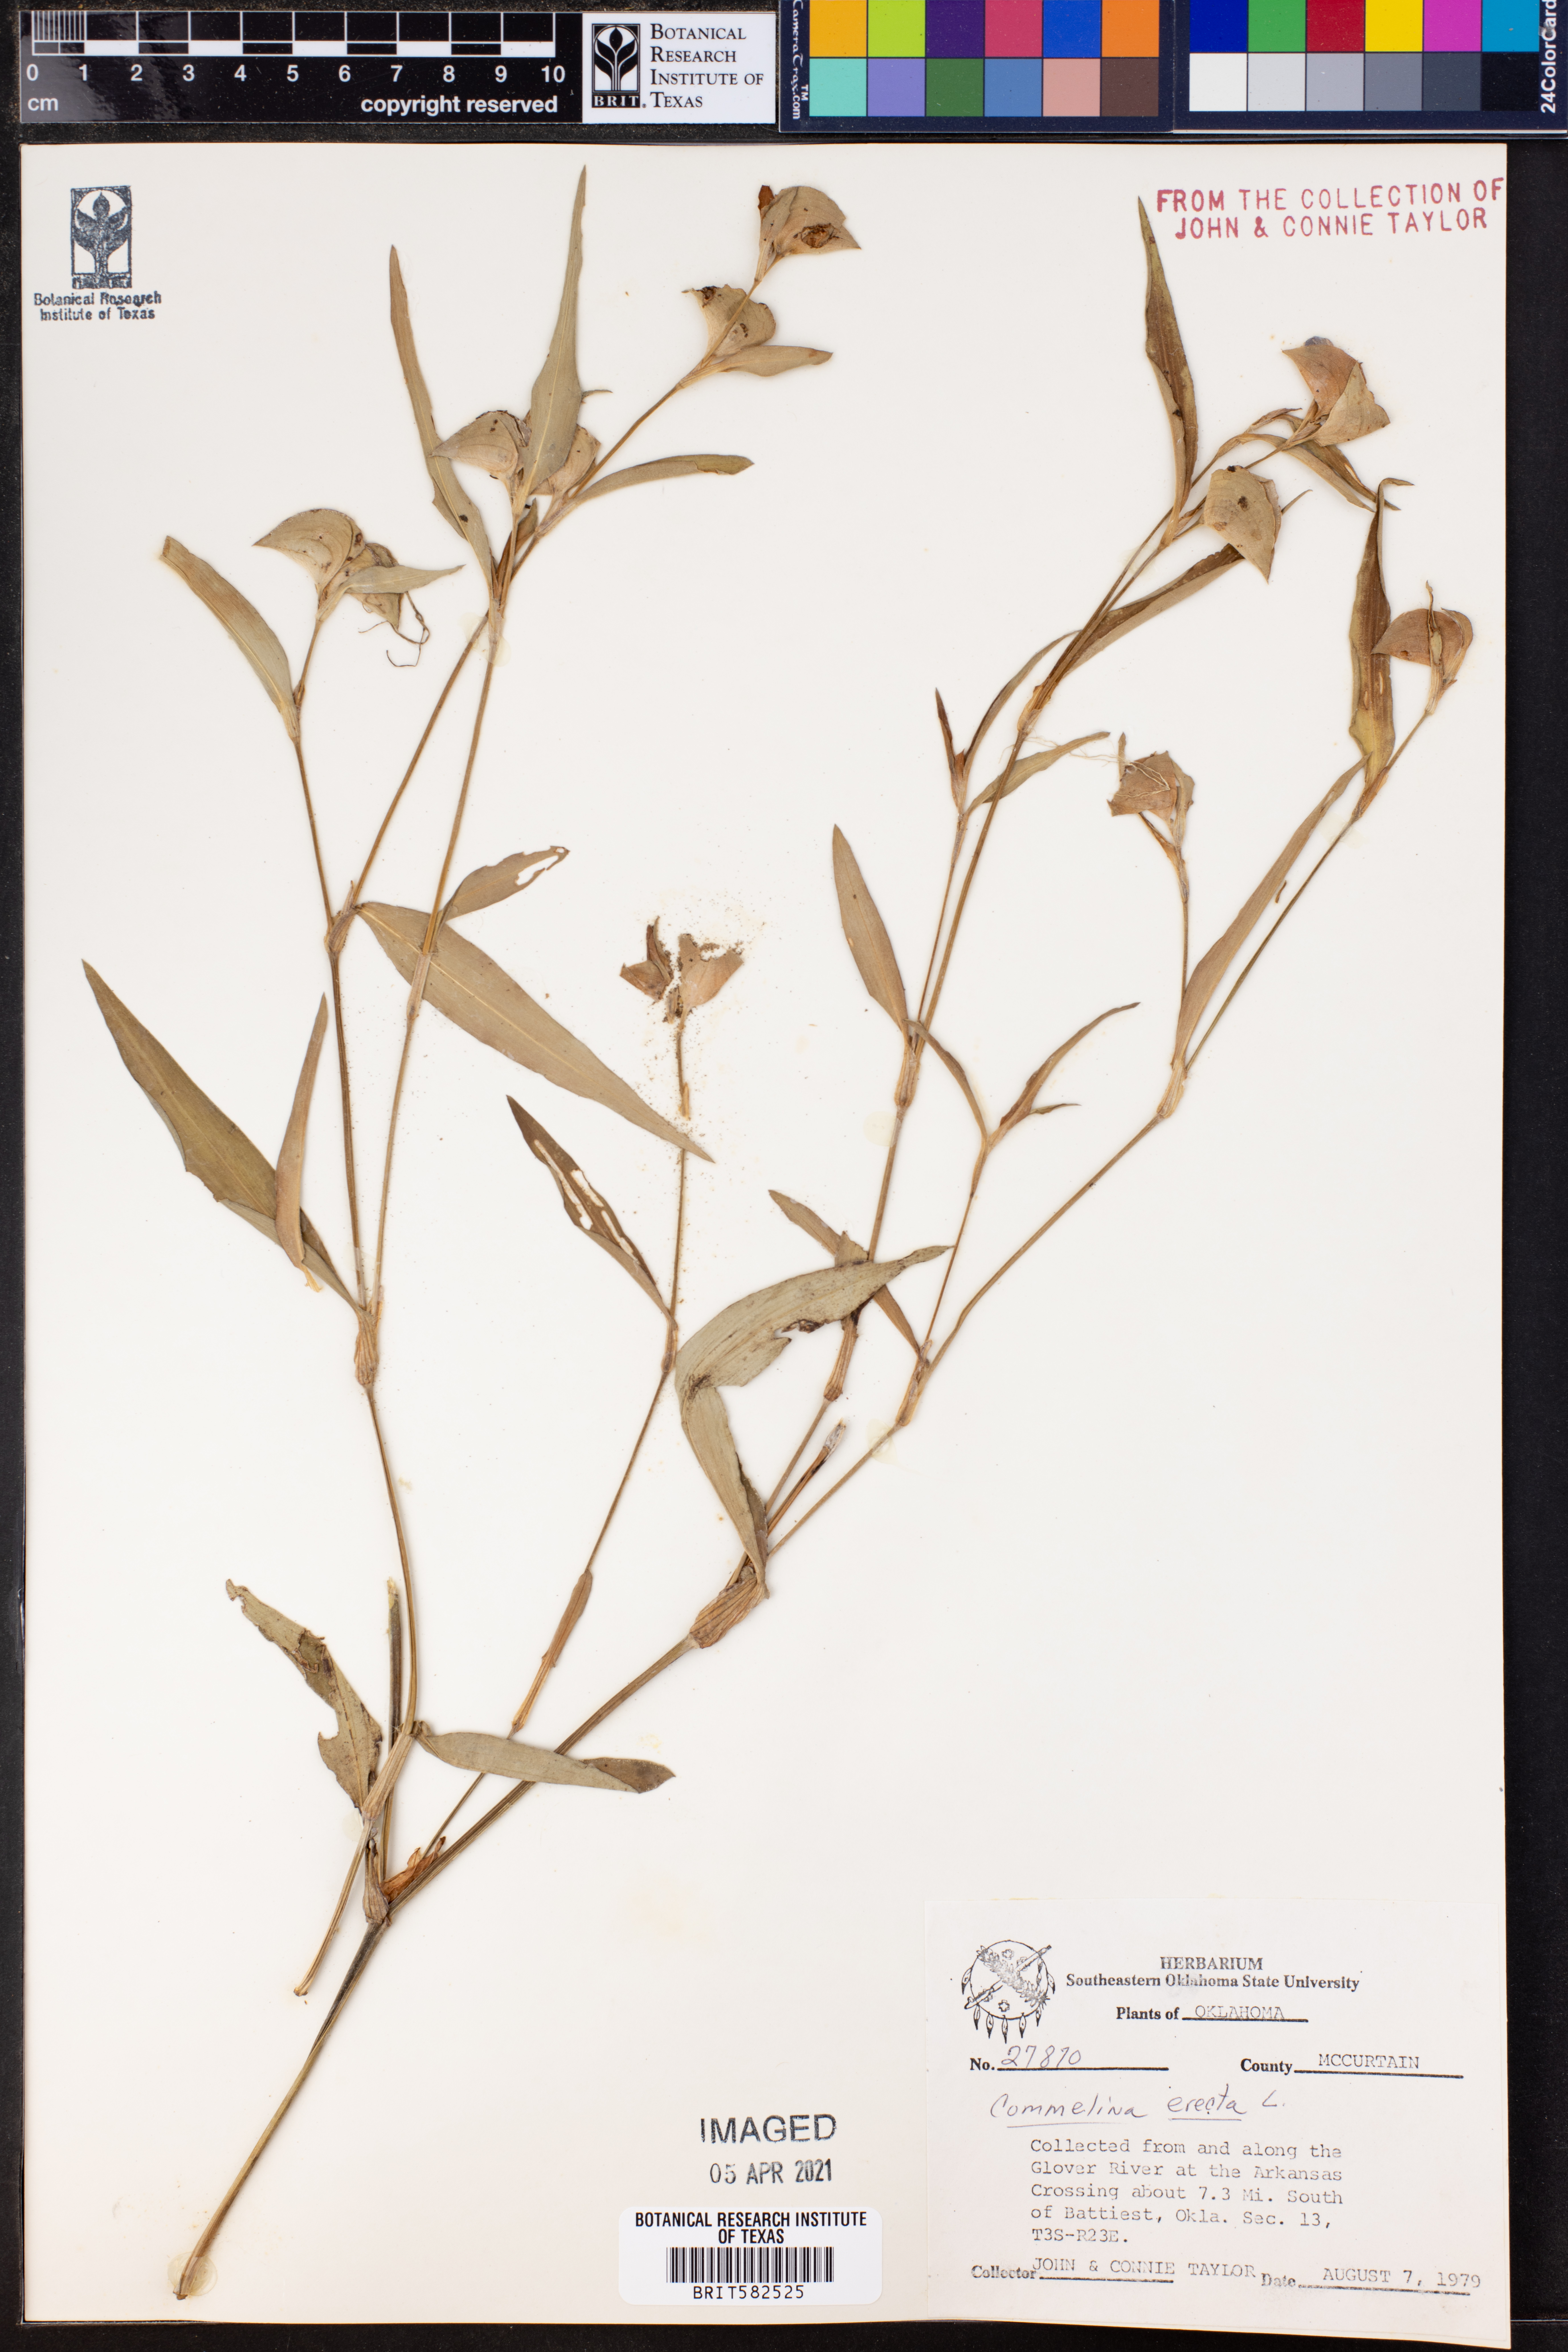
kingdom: Plantae
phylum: Tracheophyta
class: Liliopsida
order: Commelinales
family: Commelinaceae
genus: Commelina
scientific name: Commelina erecta
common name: Blousel blommetjie
